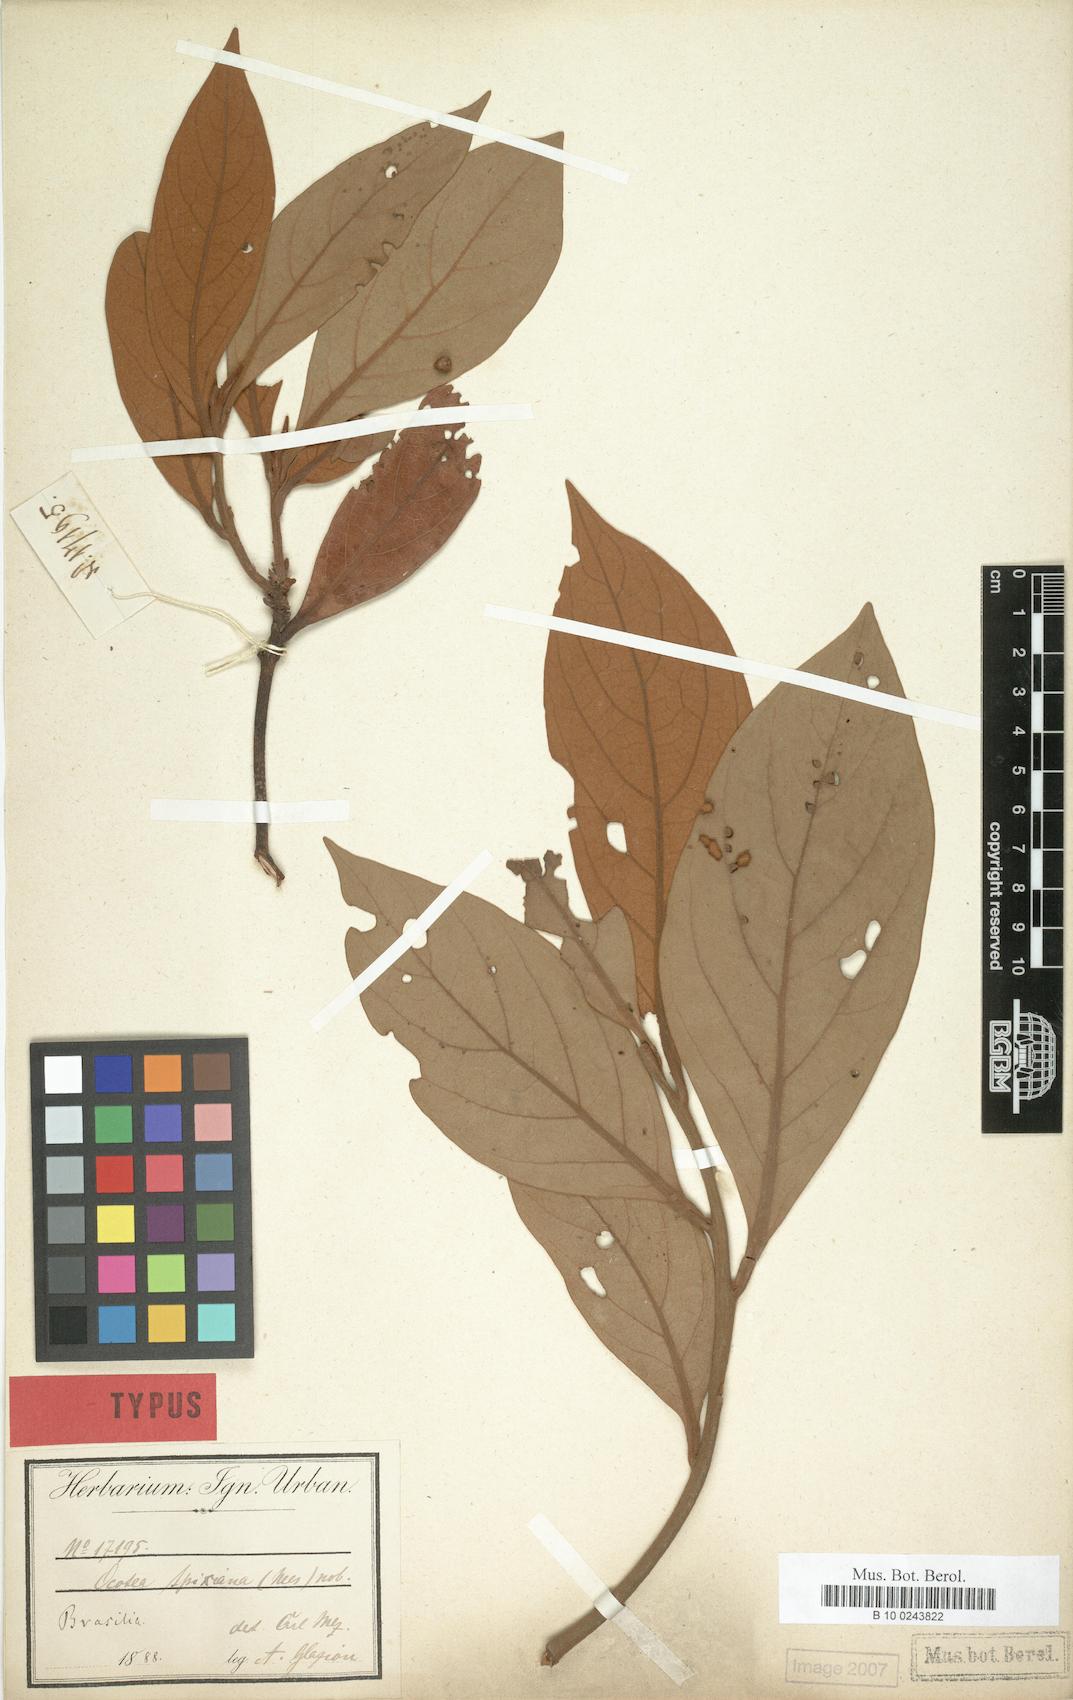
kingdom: Plantae
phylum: Tracheophyta
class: Magnoliopsida
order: Laurales
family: Lauraceae
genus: Ocotea
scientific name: Ocotea spixiana
